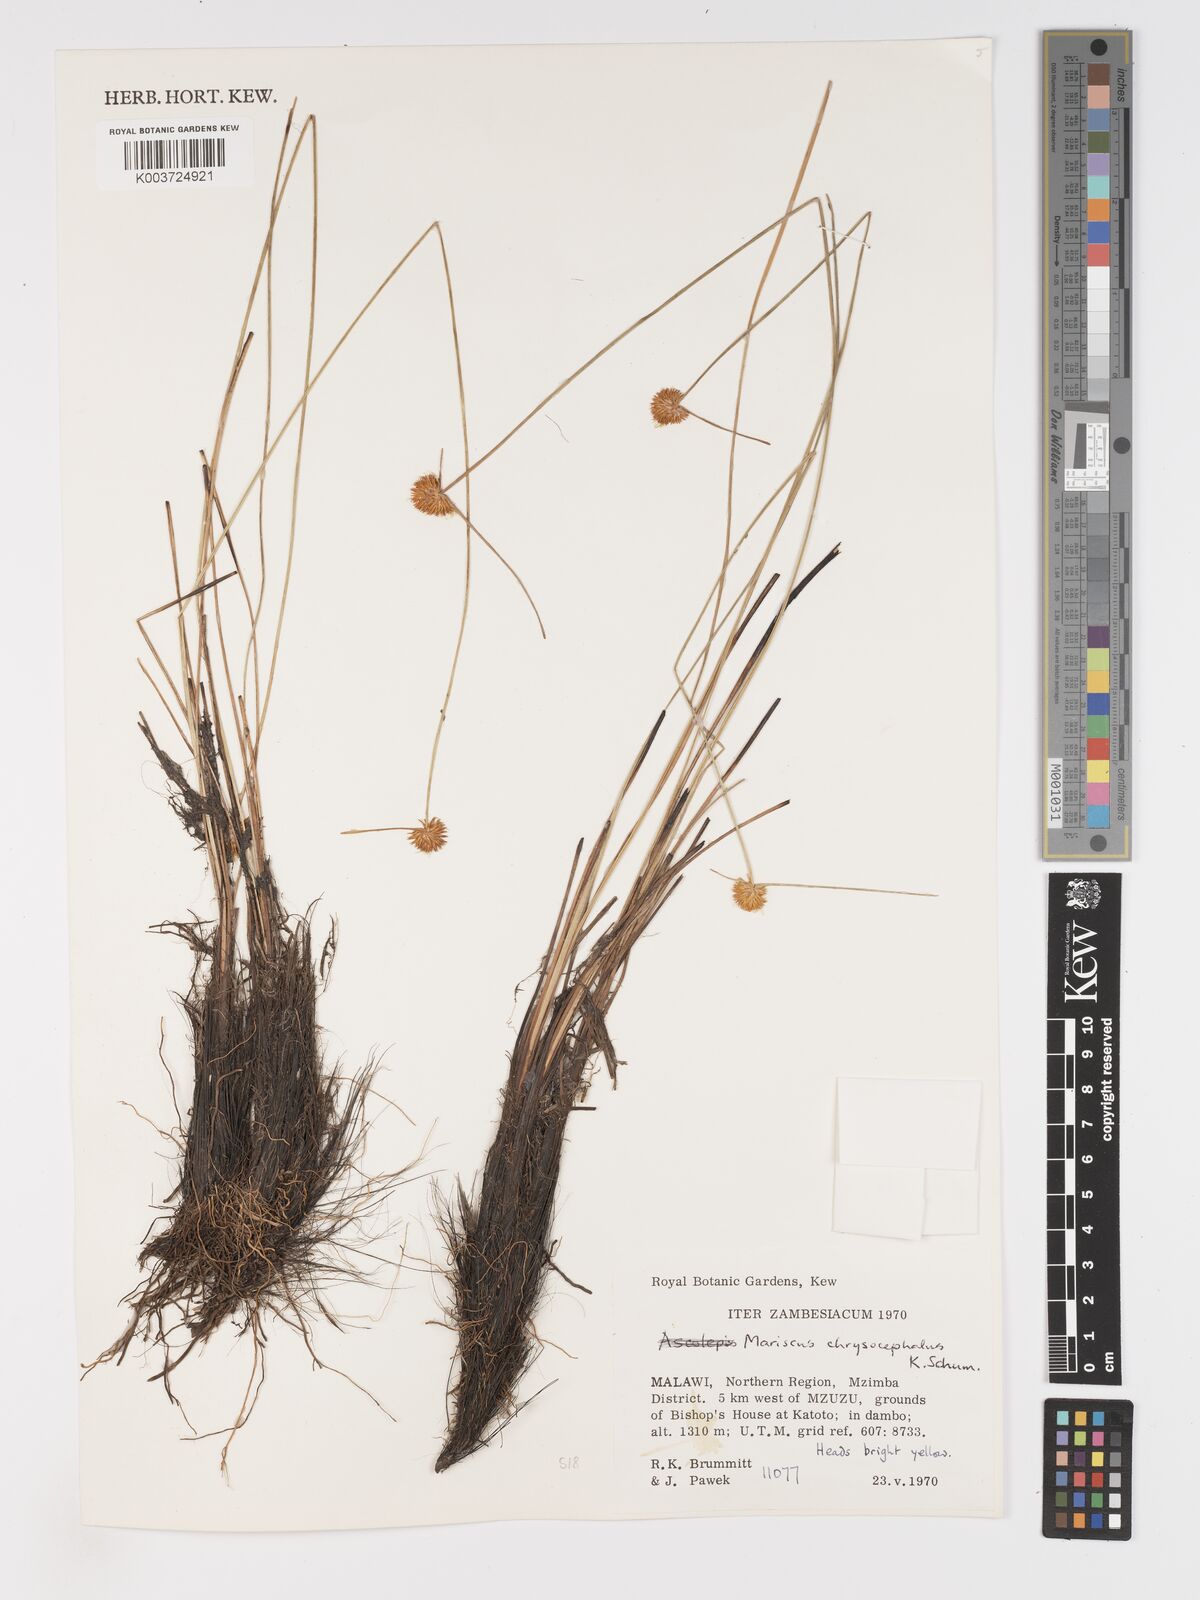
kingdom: Plantae
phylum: Tracheophyta
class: Liliopsida
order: Poales
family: Cyperaceae
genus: Cyperus
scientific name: Cyperus chrysocephalus
